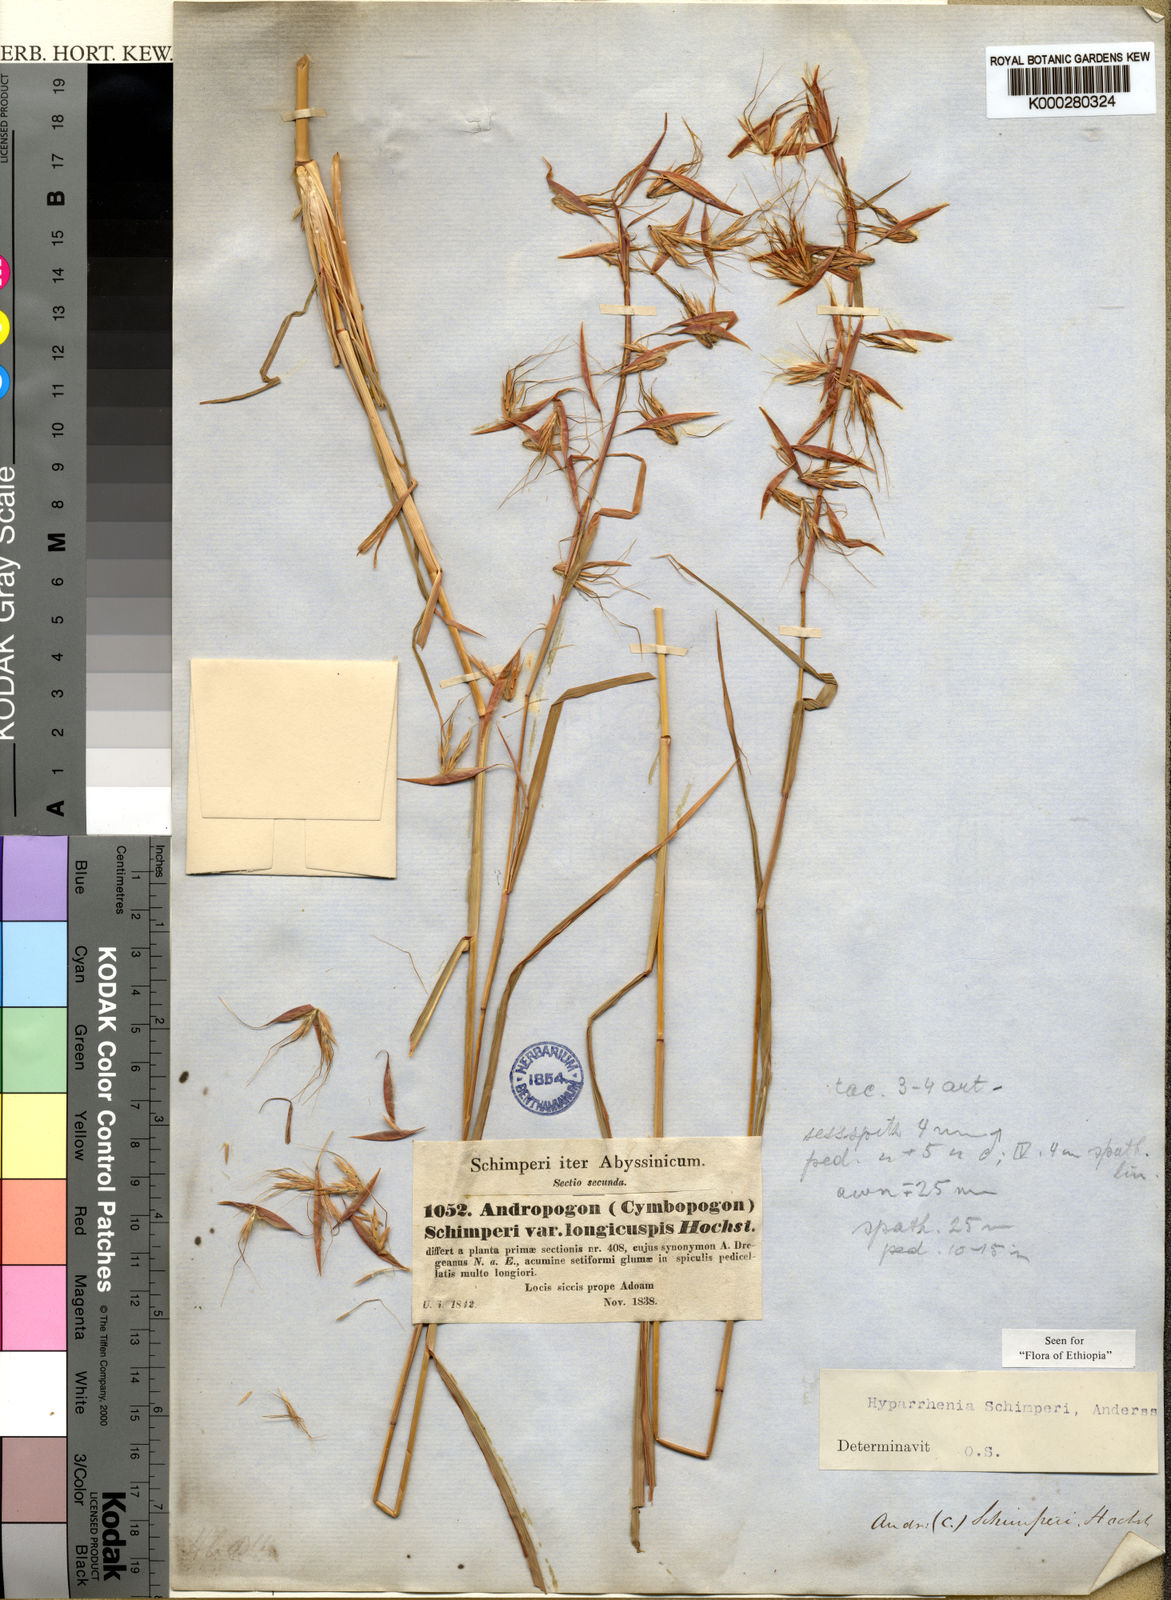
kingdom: Plantae
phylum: Tracheophyta
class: Liliopsida
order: Poales
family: Poaceae
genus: Hyparrhenia
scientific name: Hyparrhenia
